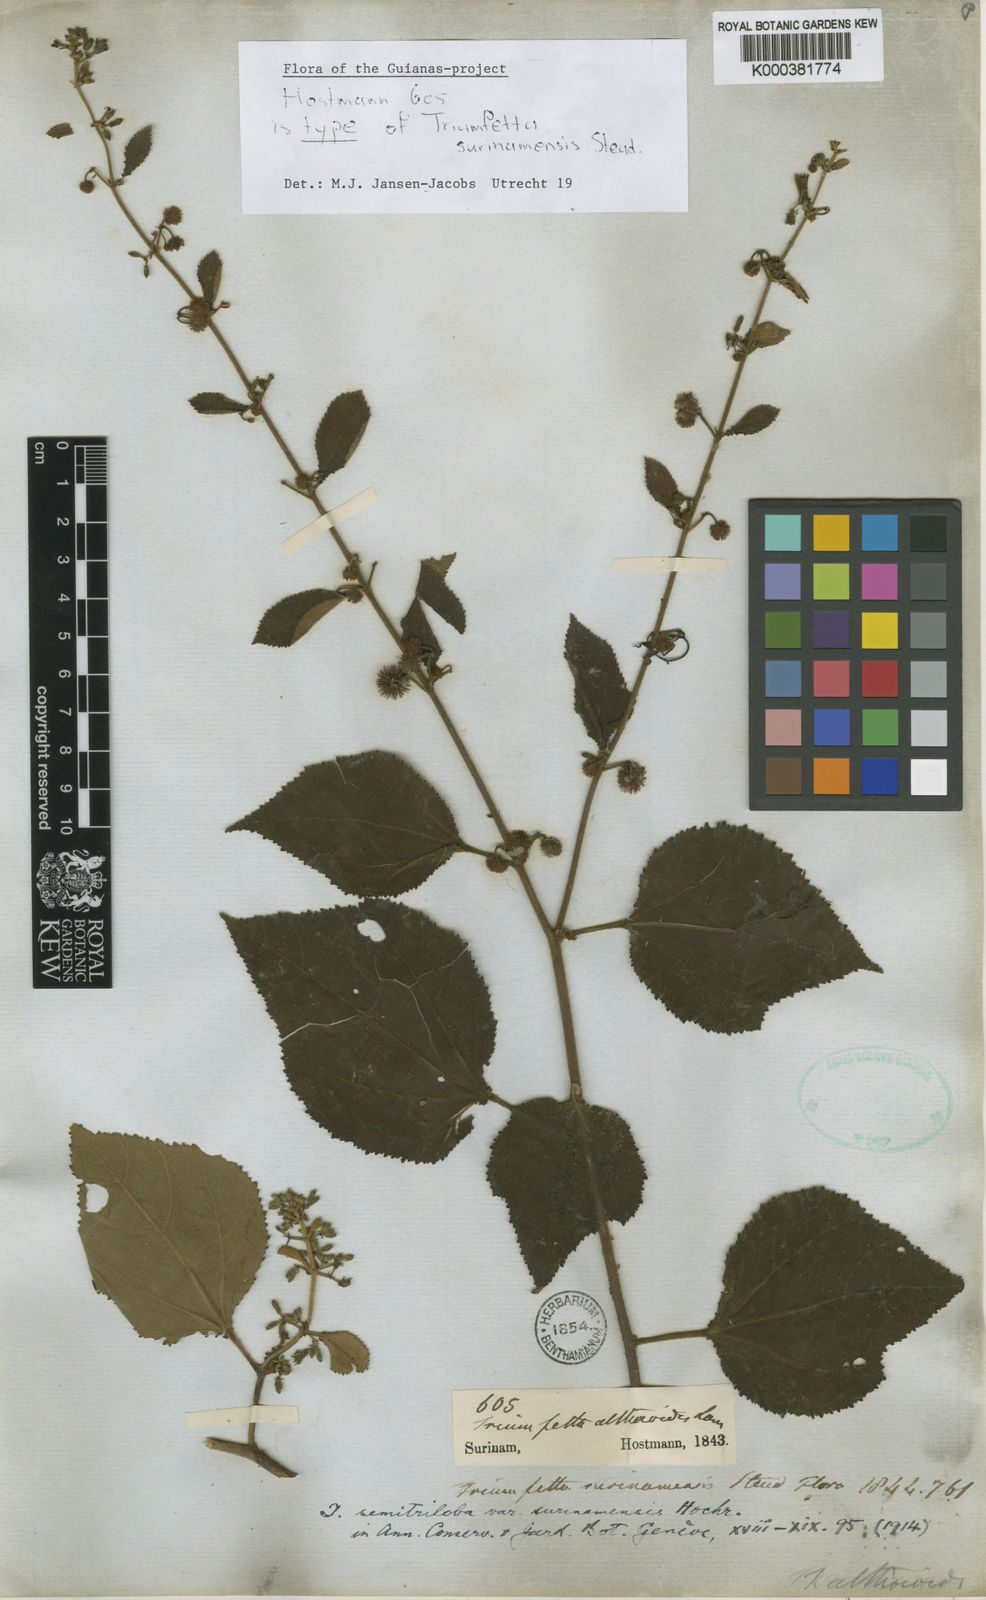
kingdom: Plantae
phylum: Tracheophyta
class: Magnoliopsida
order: Malvales
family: Malvaceae
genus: Triumfetta
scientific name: Triumfetta
